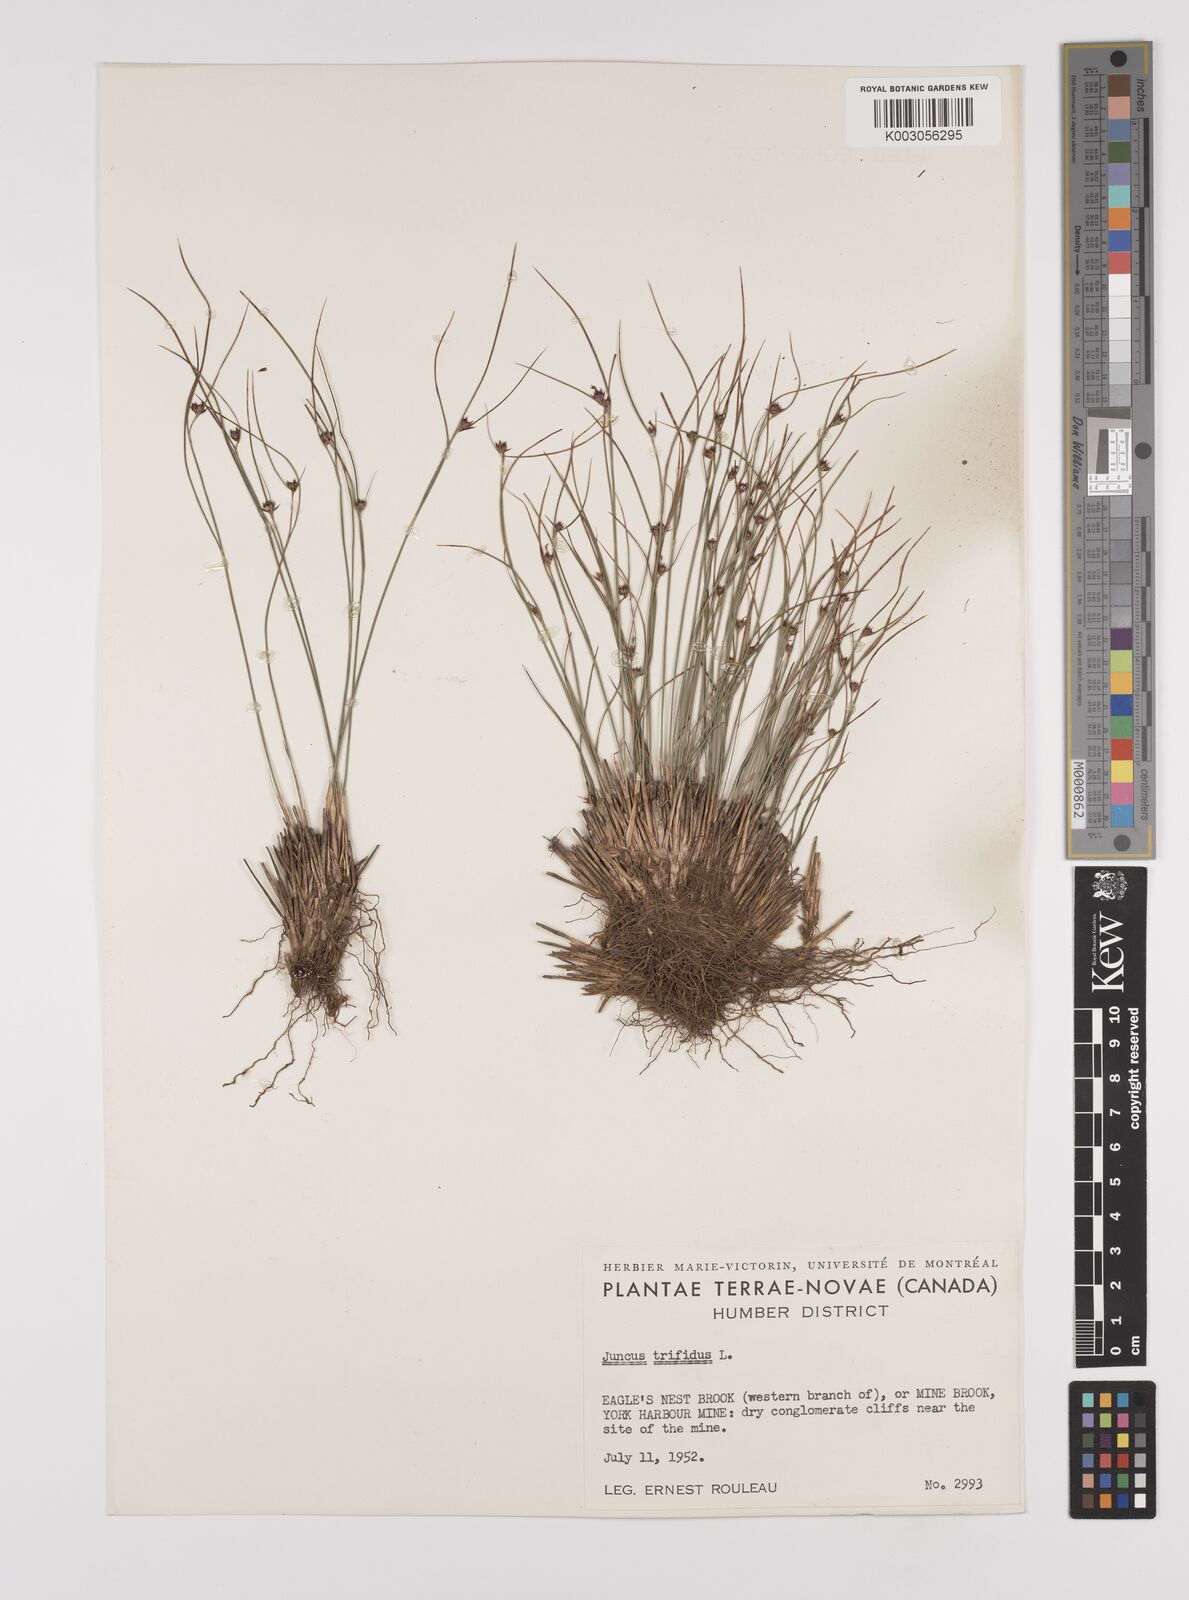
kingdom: Plantae
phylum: Tracheophyta
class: Liliopsida
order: Poales
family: Juncaceae
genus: Oreojuncus
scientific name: Oreojuncus trifidus
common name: Highland rush
